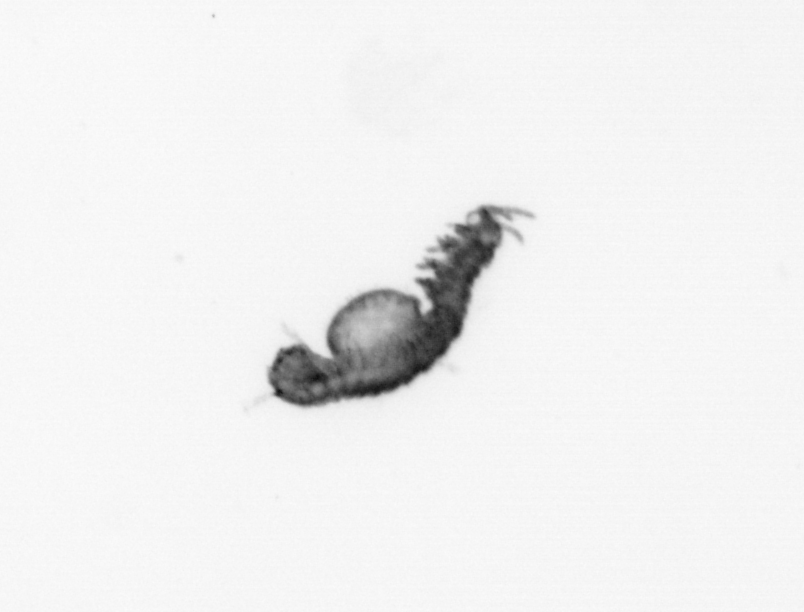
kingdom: Animalia
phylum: Annelida
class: Polychaeta
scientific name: Polychaeta
